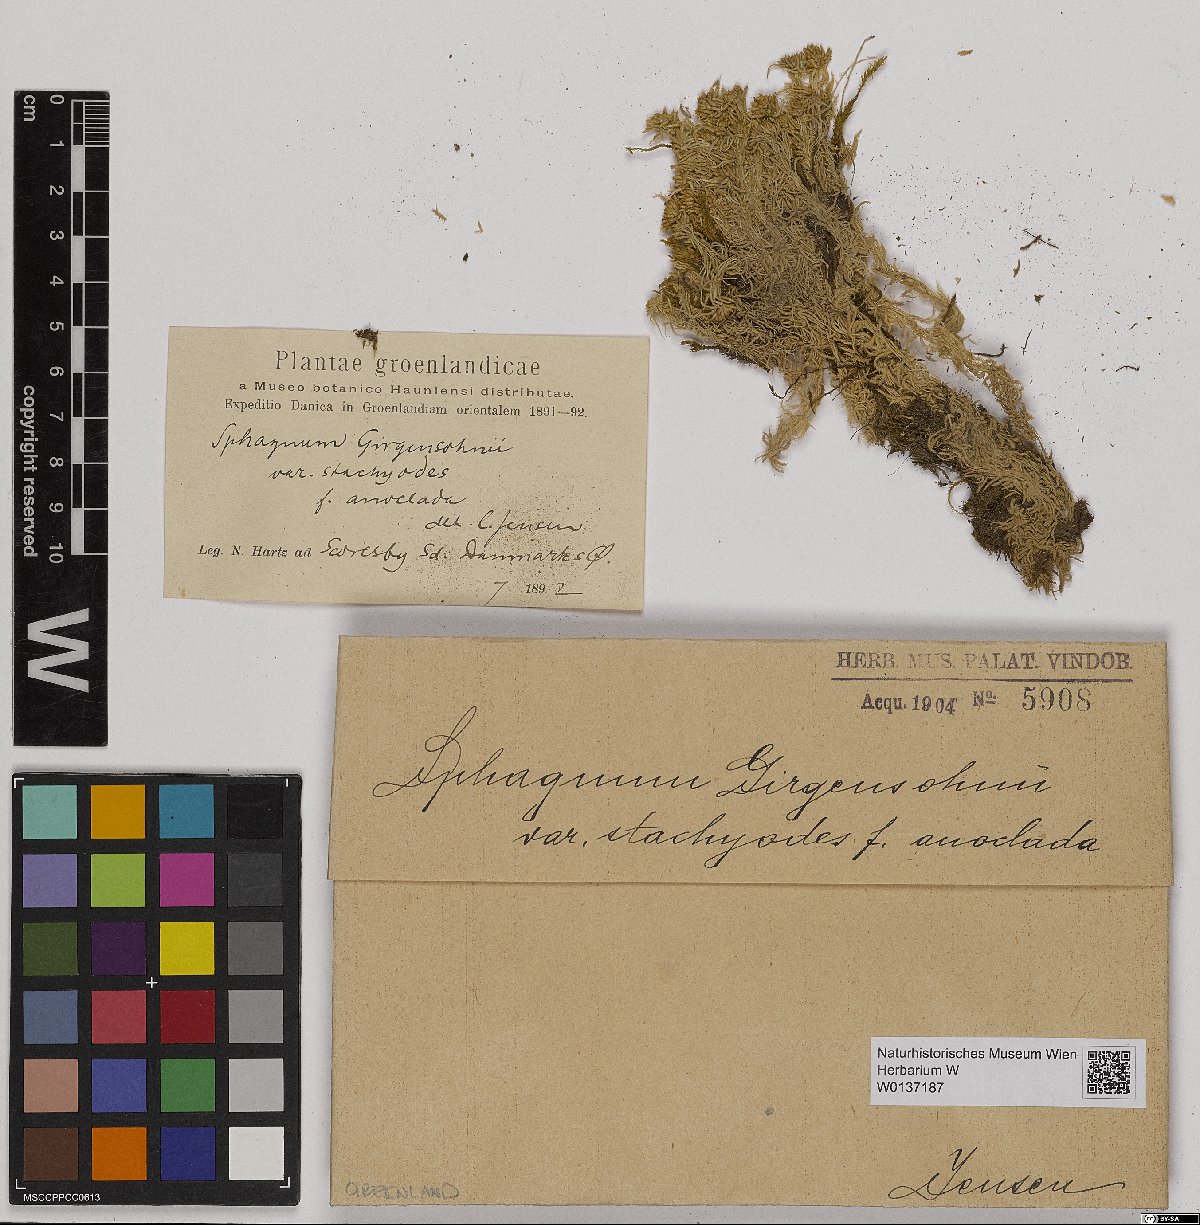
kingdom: Plantae
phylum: Bryophyta
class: Sphagnopsida
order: Sphagnales
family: Sphagnaceae
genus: Sphagnum
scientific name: Sphagnum girgensohnii
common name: Girgensohn's peat moss
